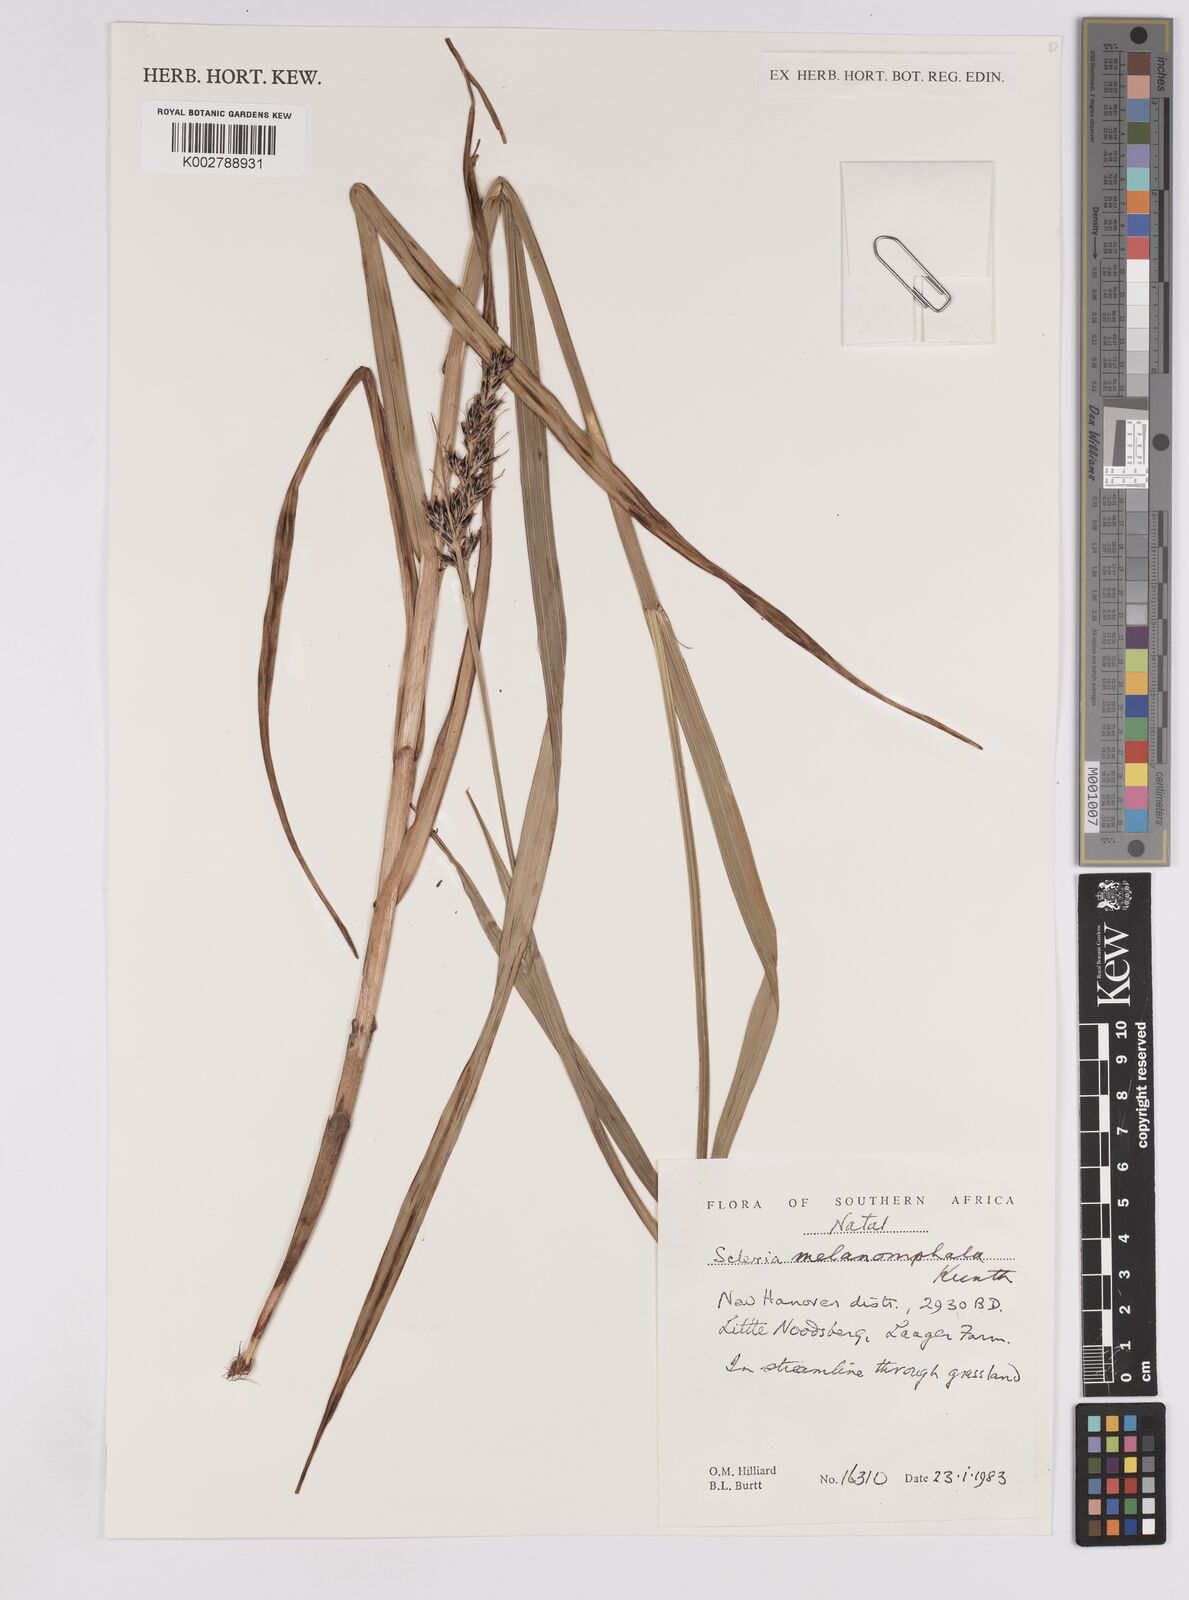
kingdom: Plantae
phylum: Tracheophyta
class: Liliopsida
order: Poales
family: Cyperaceae
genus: Scleria
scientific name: Scleria melanomphala
